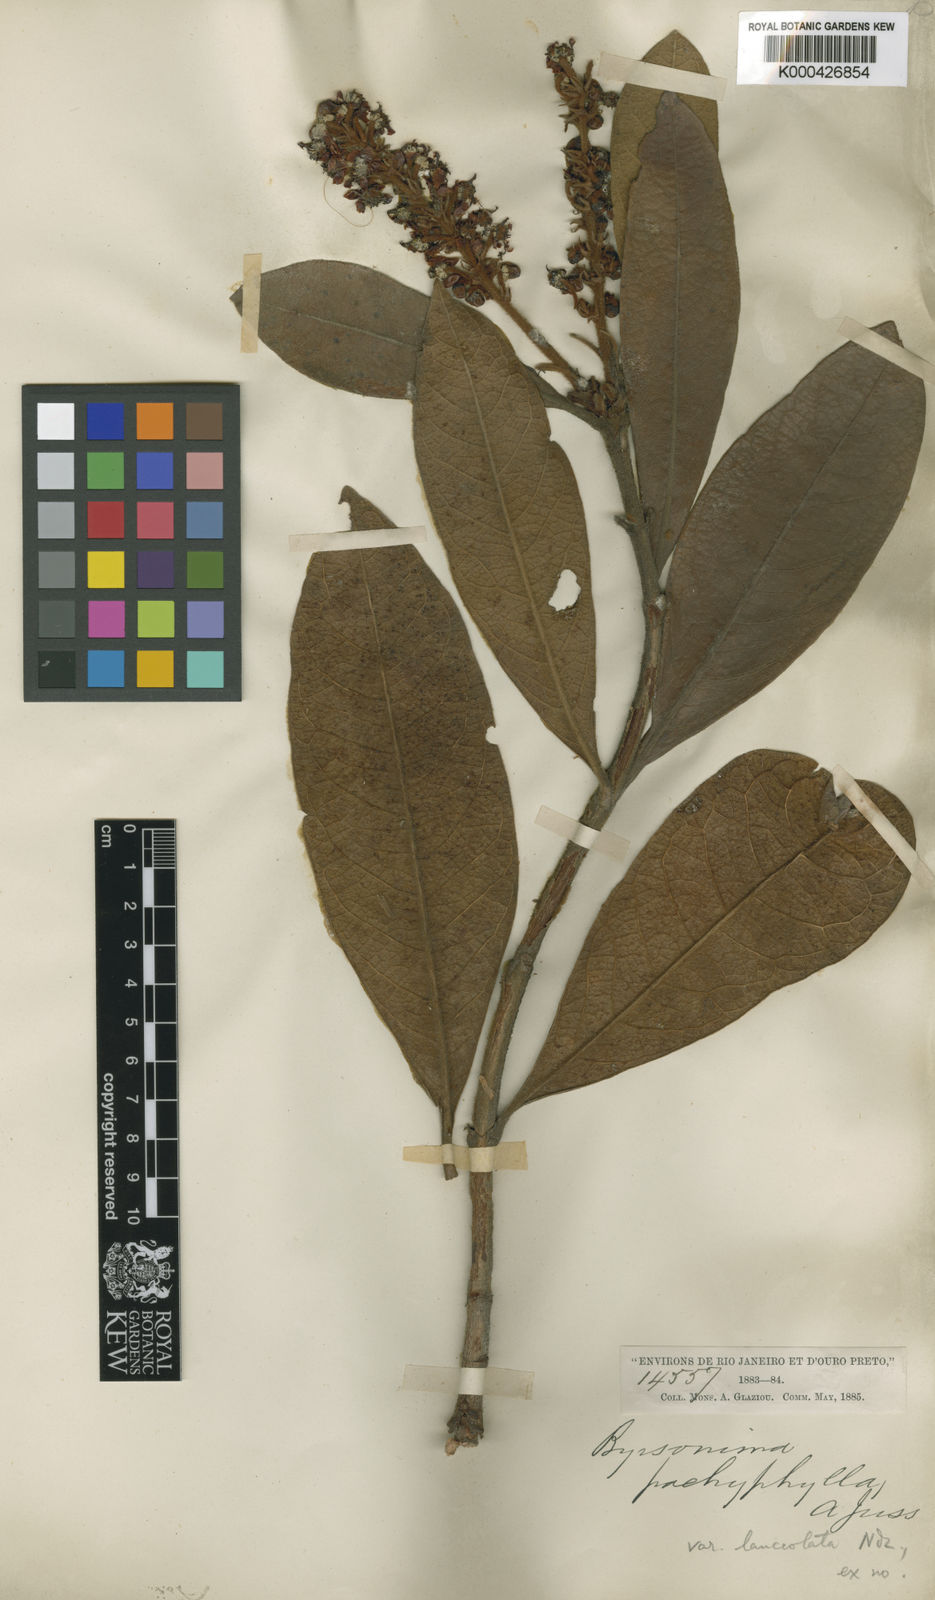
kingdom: Plantae
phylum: Tracheophyta
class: Magnoliopsida
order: Malpighiales
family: Malpighiaceae
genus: Byrsonima
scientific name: Byrsonima pachyphylla
